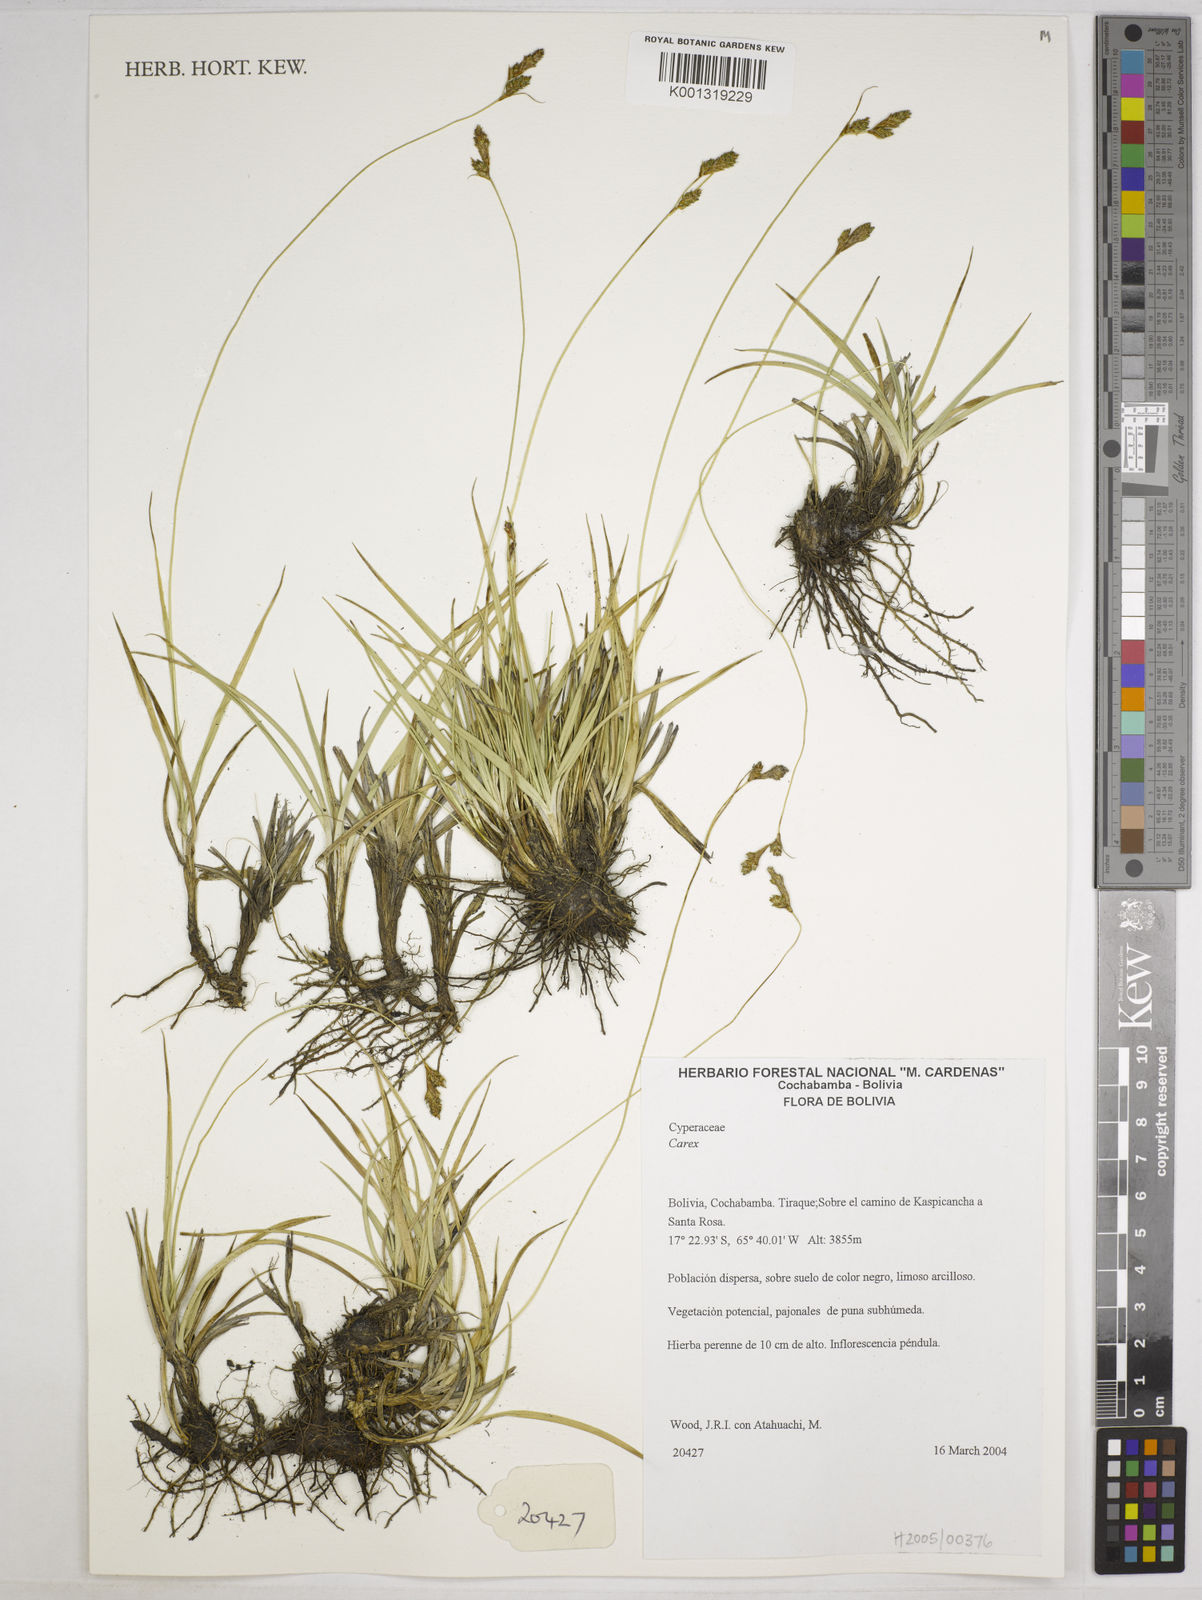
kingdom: Plantae
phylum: Tracheophyta
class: Liliopsida
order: Poales
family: Cyperaceae
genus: Carex
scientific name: Carex boliviensis
